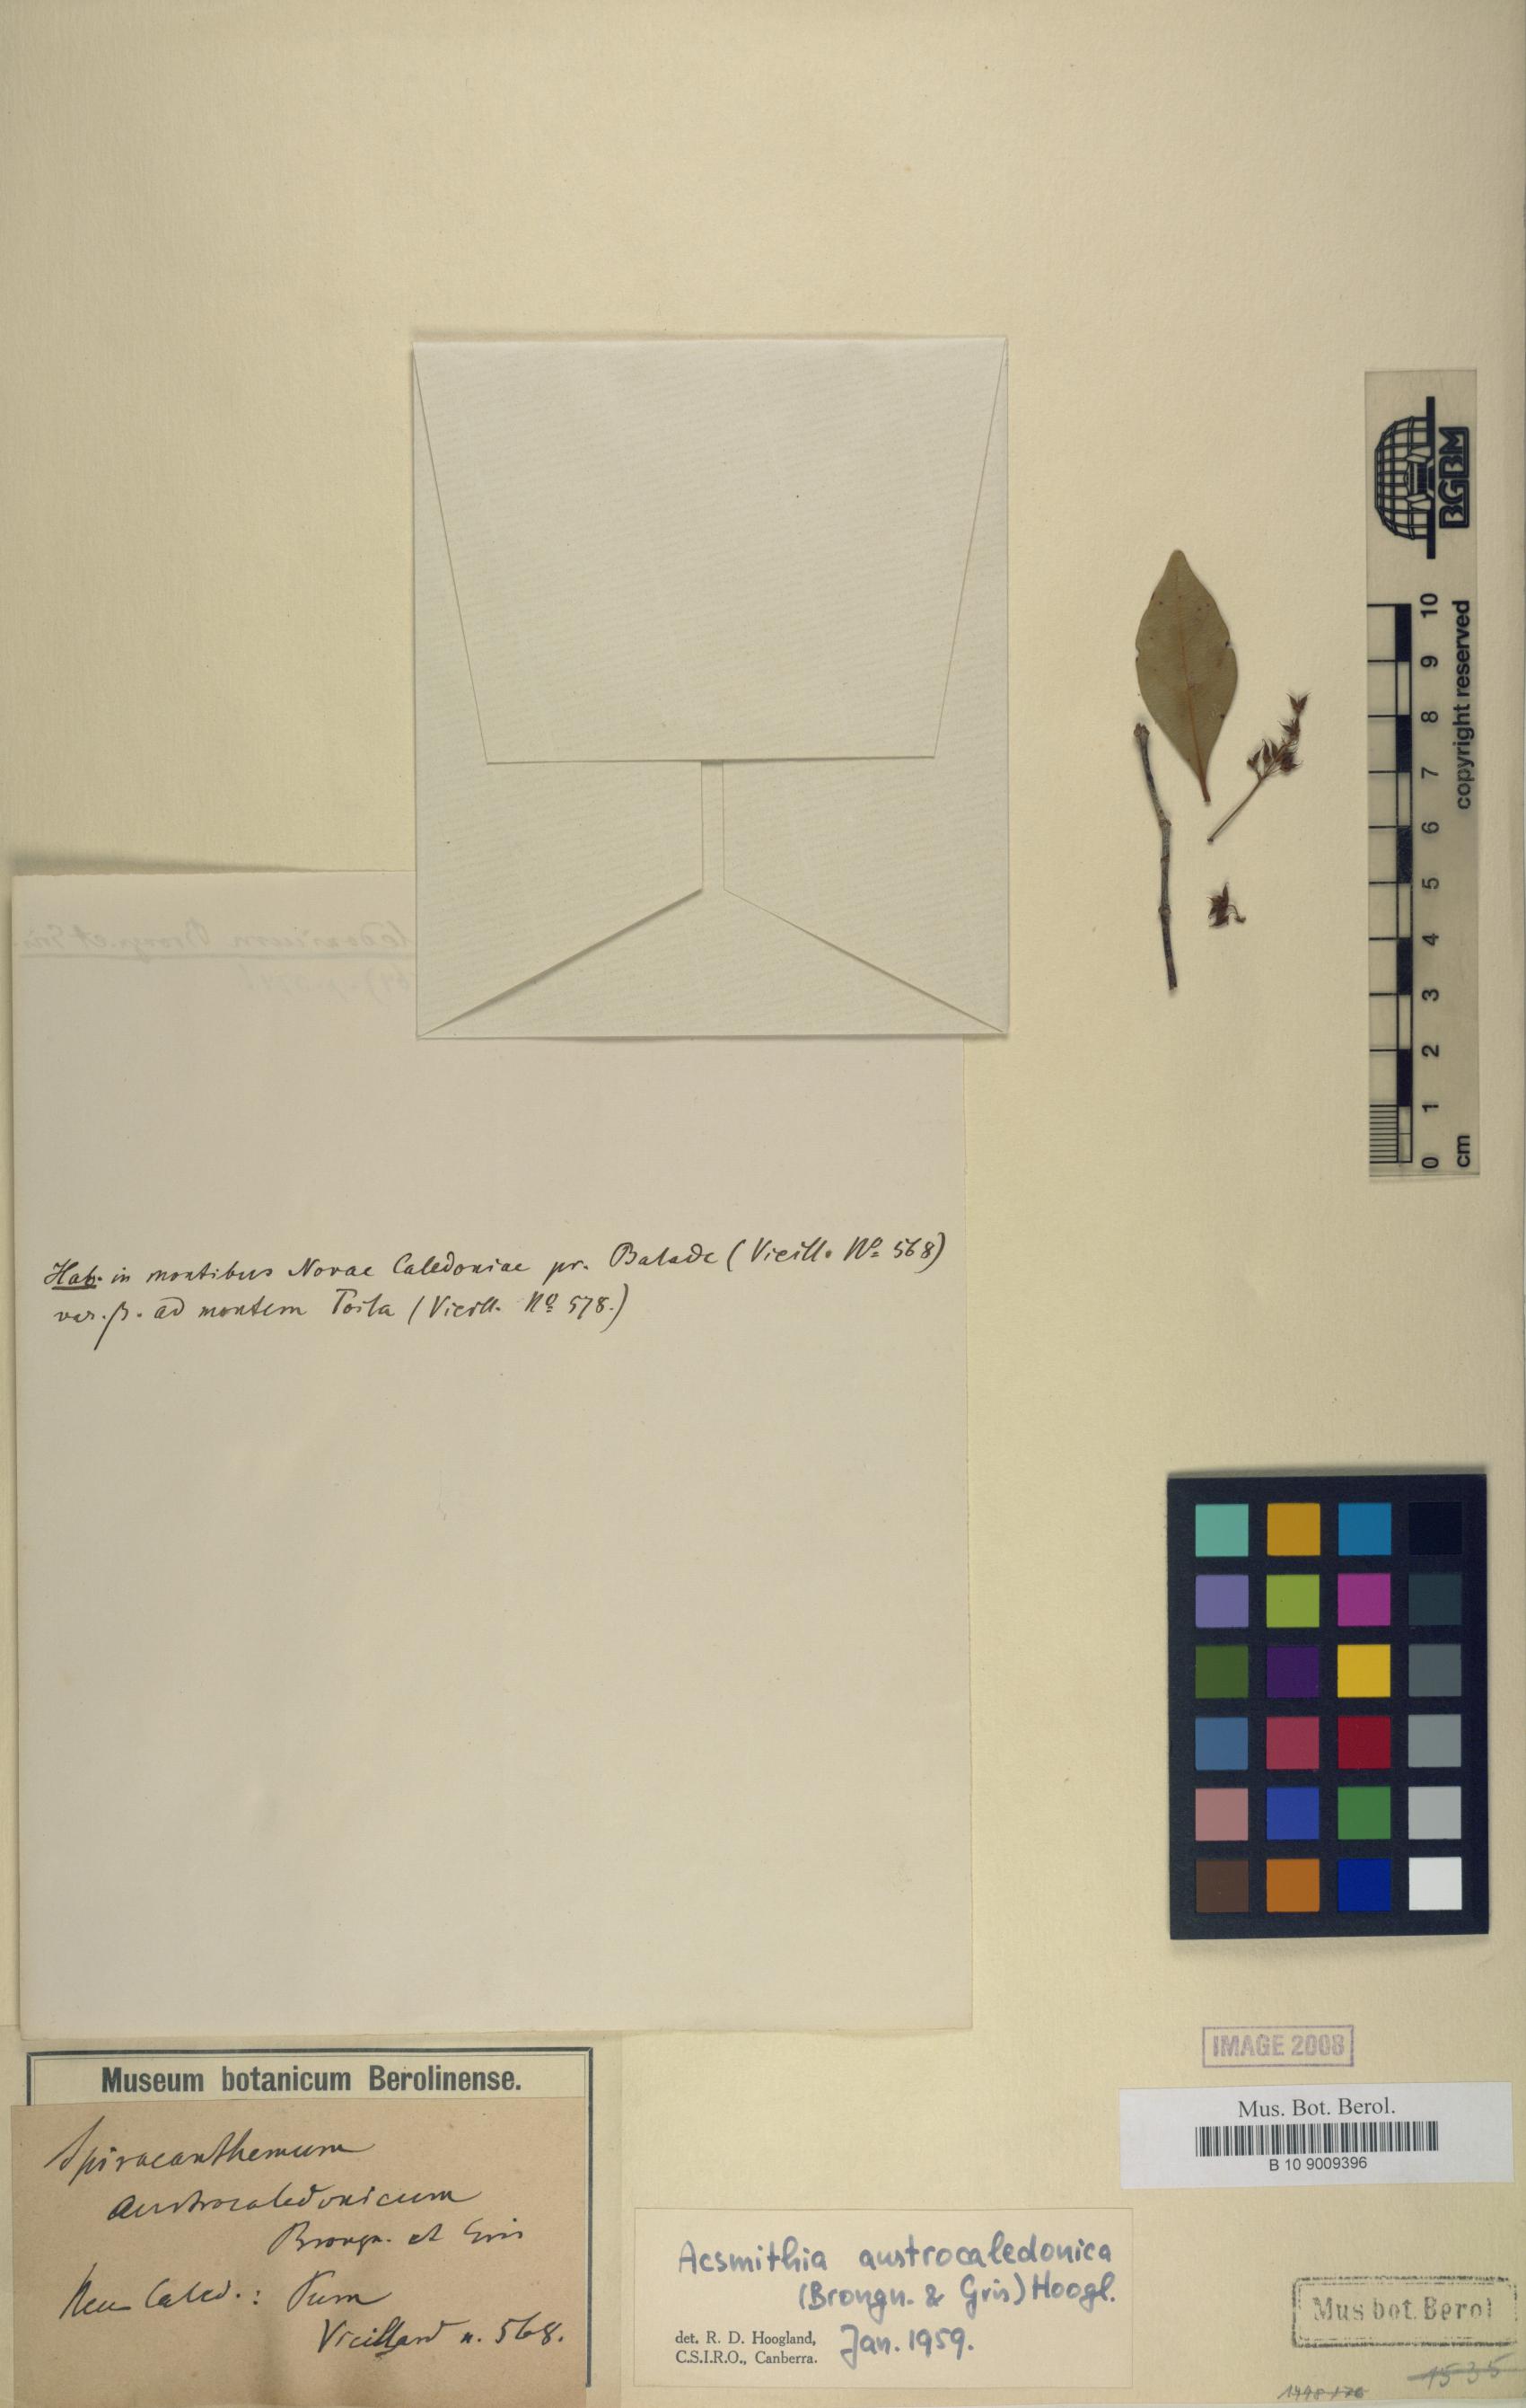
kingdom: Plantae
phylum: Tracheophyta
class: Magnoliopsida
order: Oxalidales
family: Cunoniaceae
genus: Spiraeanthemum
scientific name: Spiraeanthemum densiflorum
